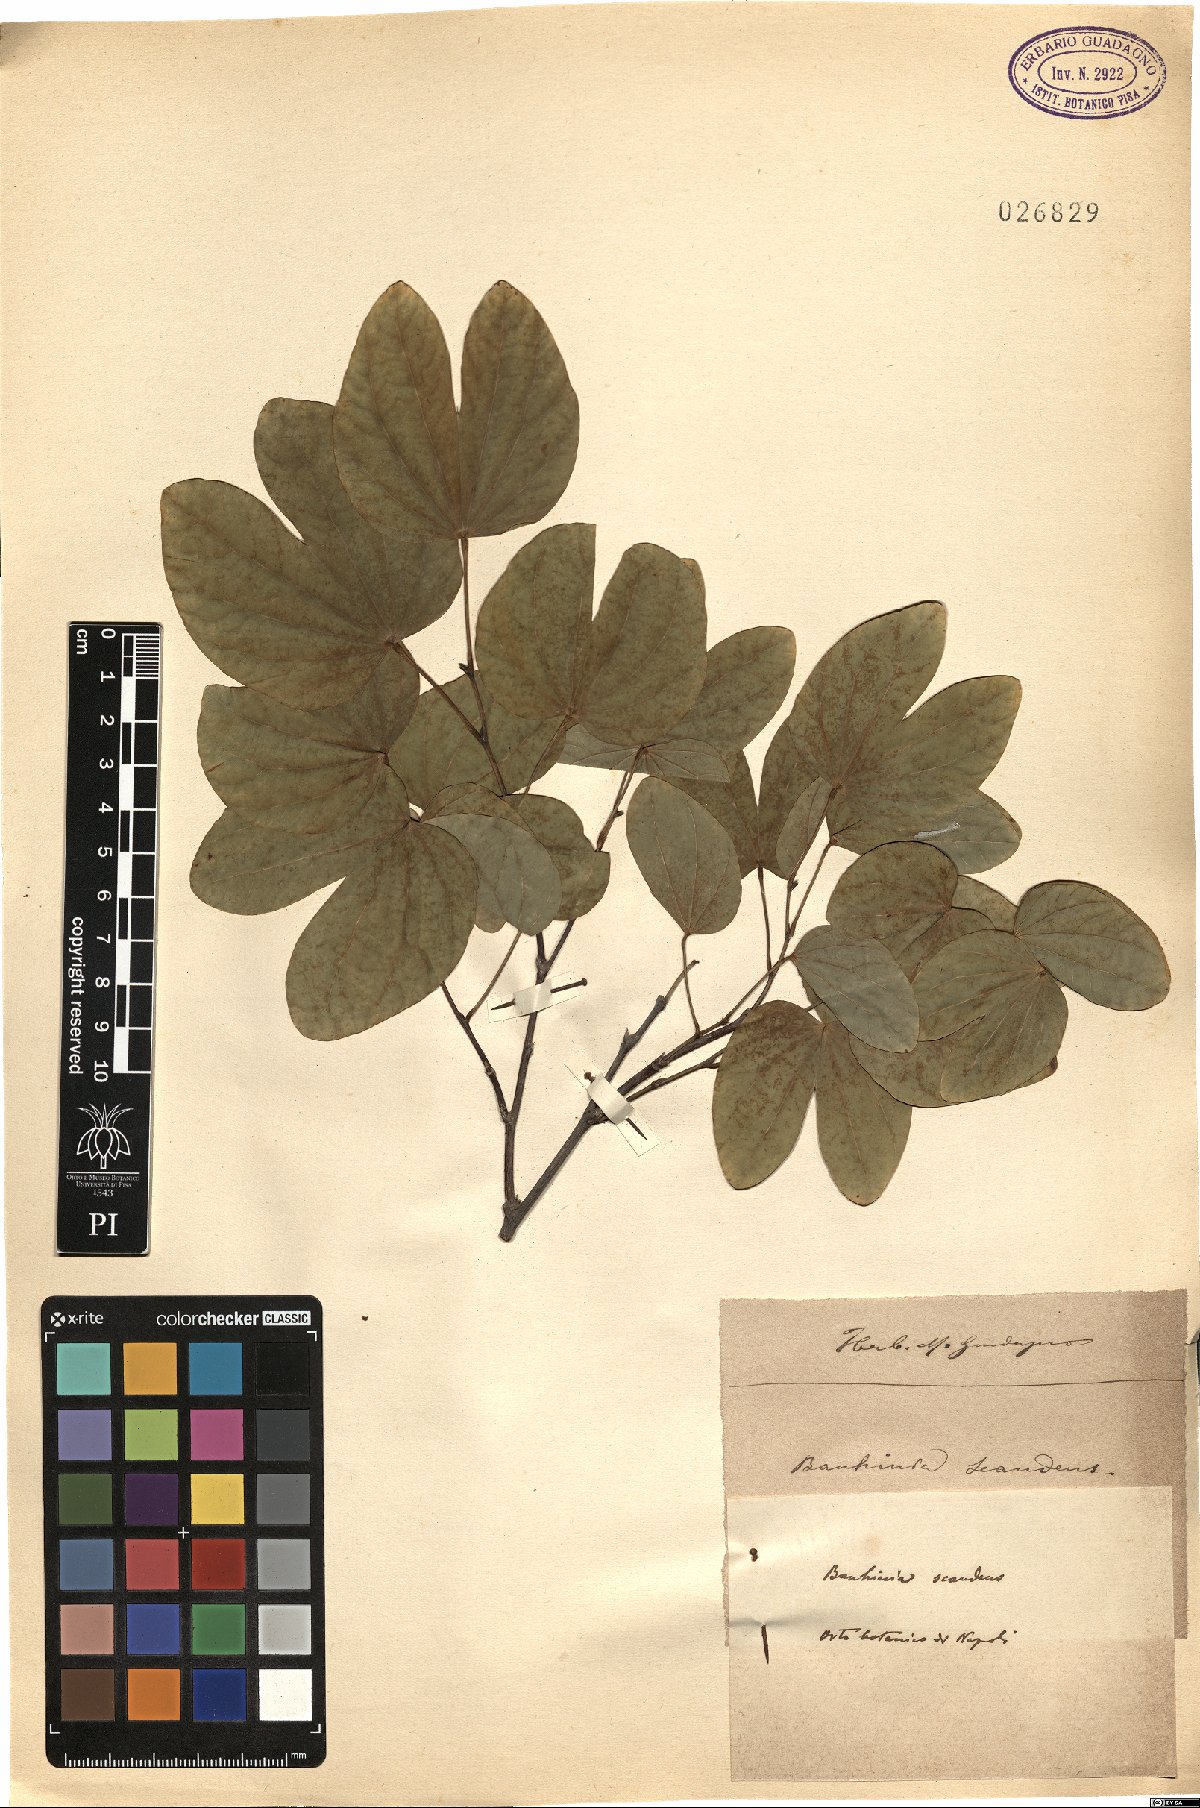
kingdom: Plantae
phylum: Tracheophyta
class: Magnoliopsida
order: Fabales
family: Fabaceae
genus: Phanera
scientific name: Phanera scandens
